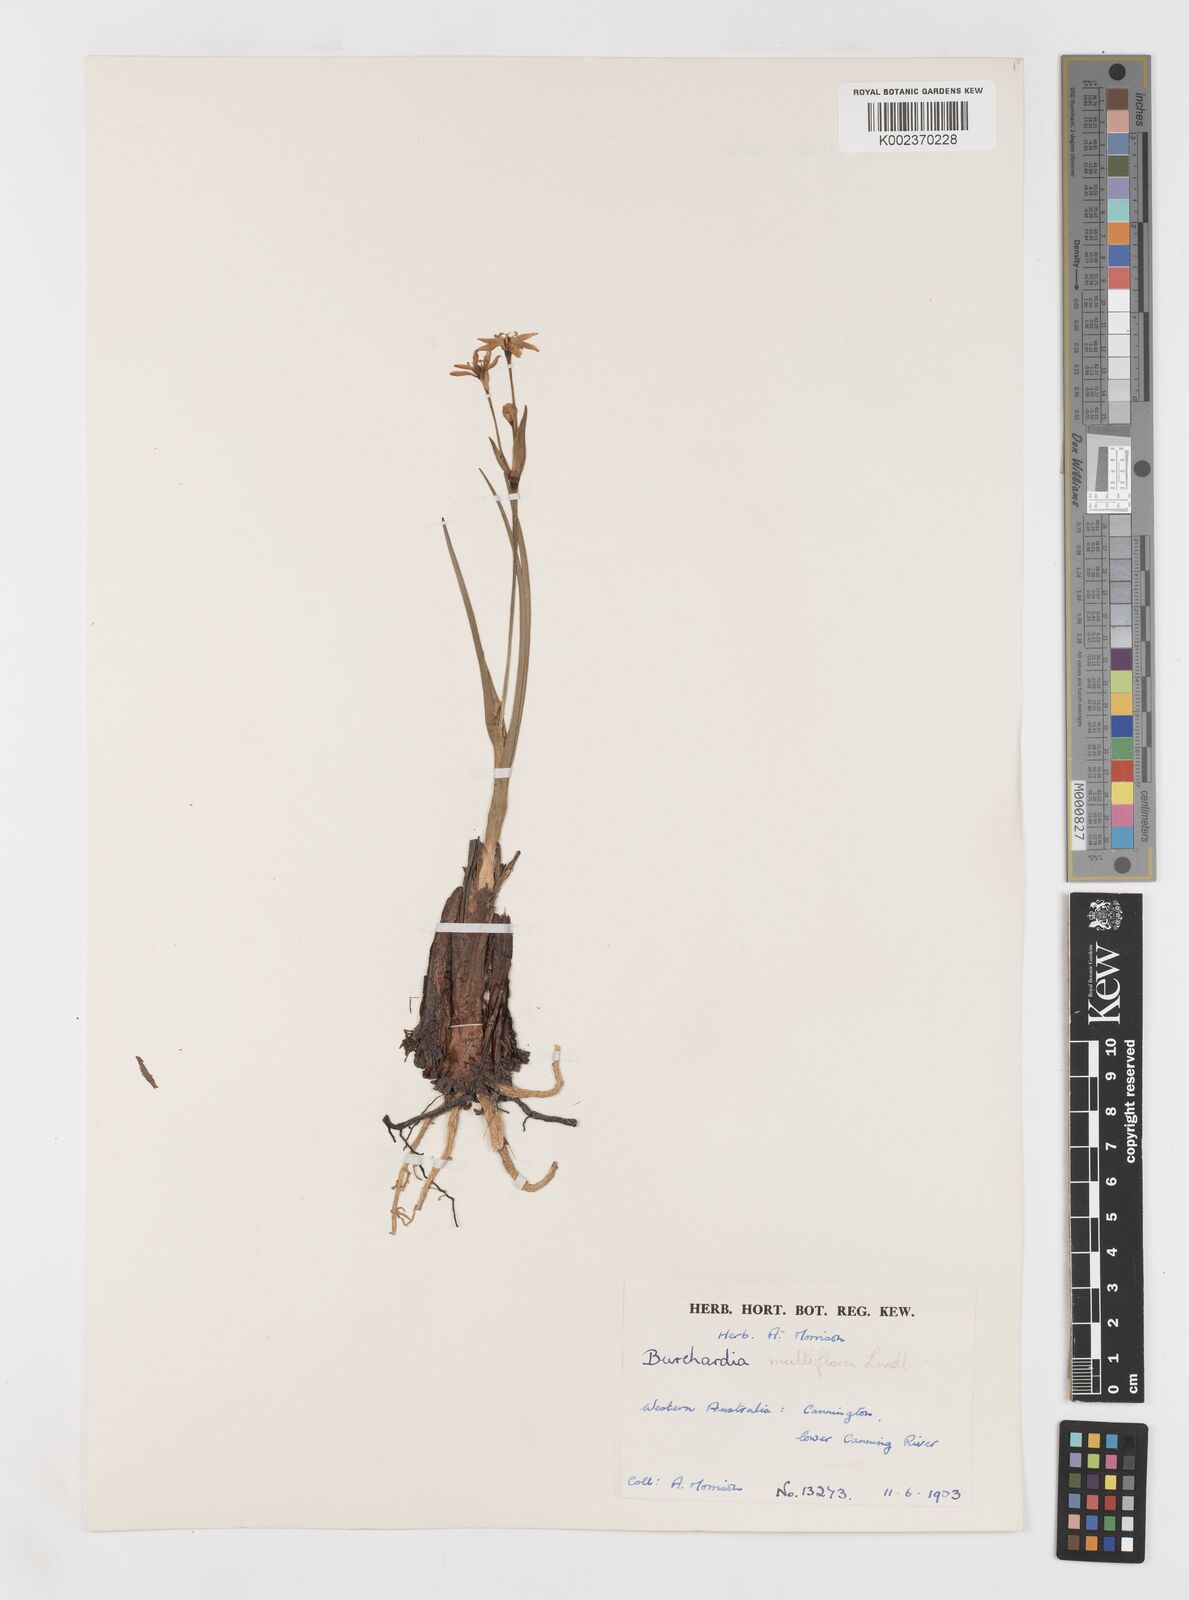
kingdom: Plantae
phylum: Tracheophyta
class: Liliopsida
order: Liliales
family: Colchicaceae
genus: Burchardia
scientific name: Burchardia multiflora
